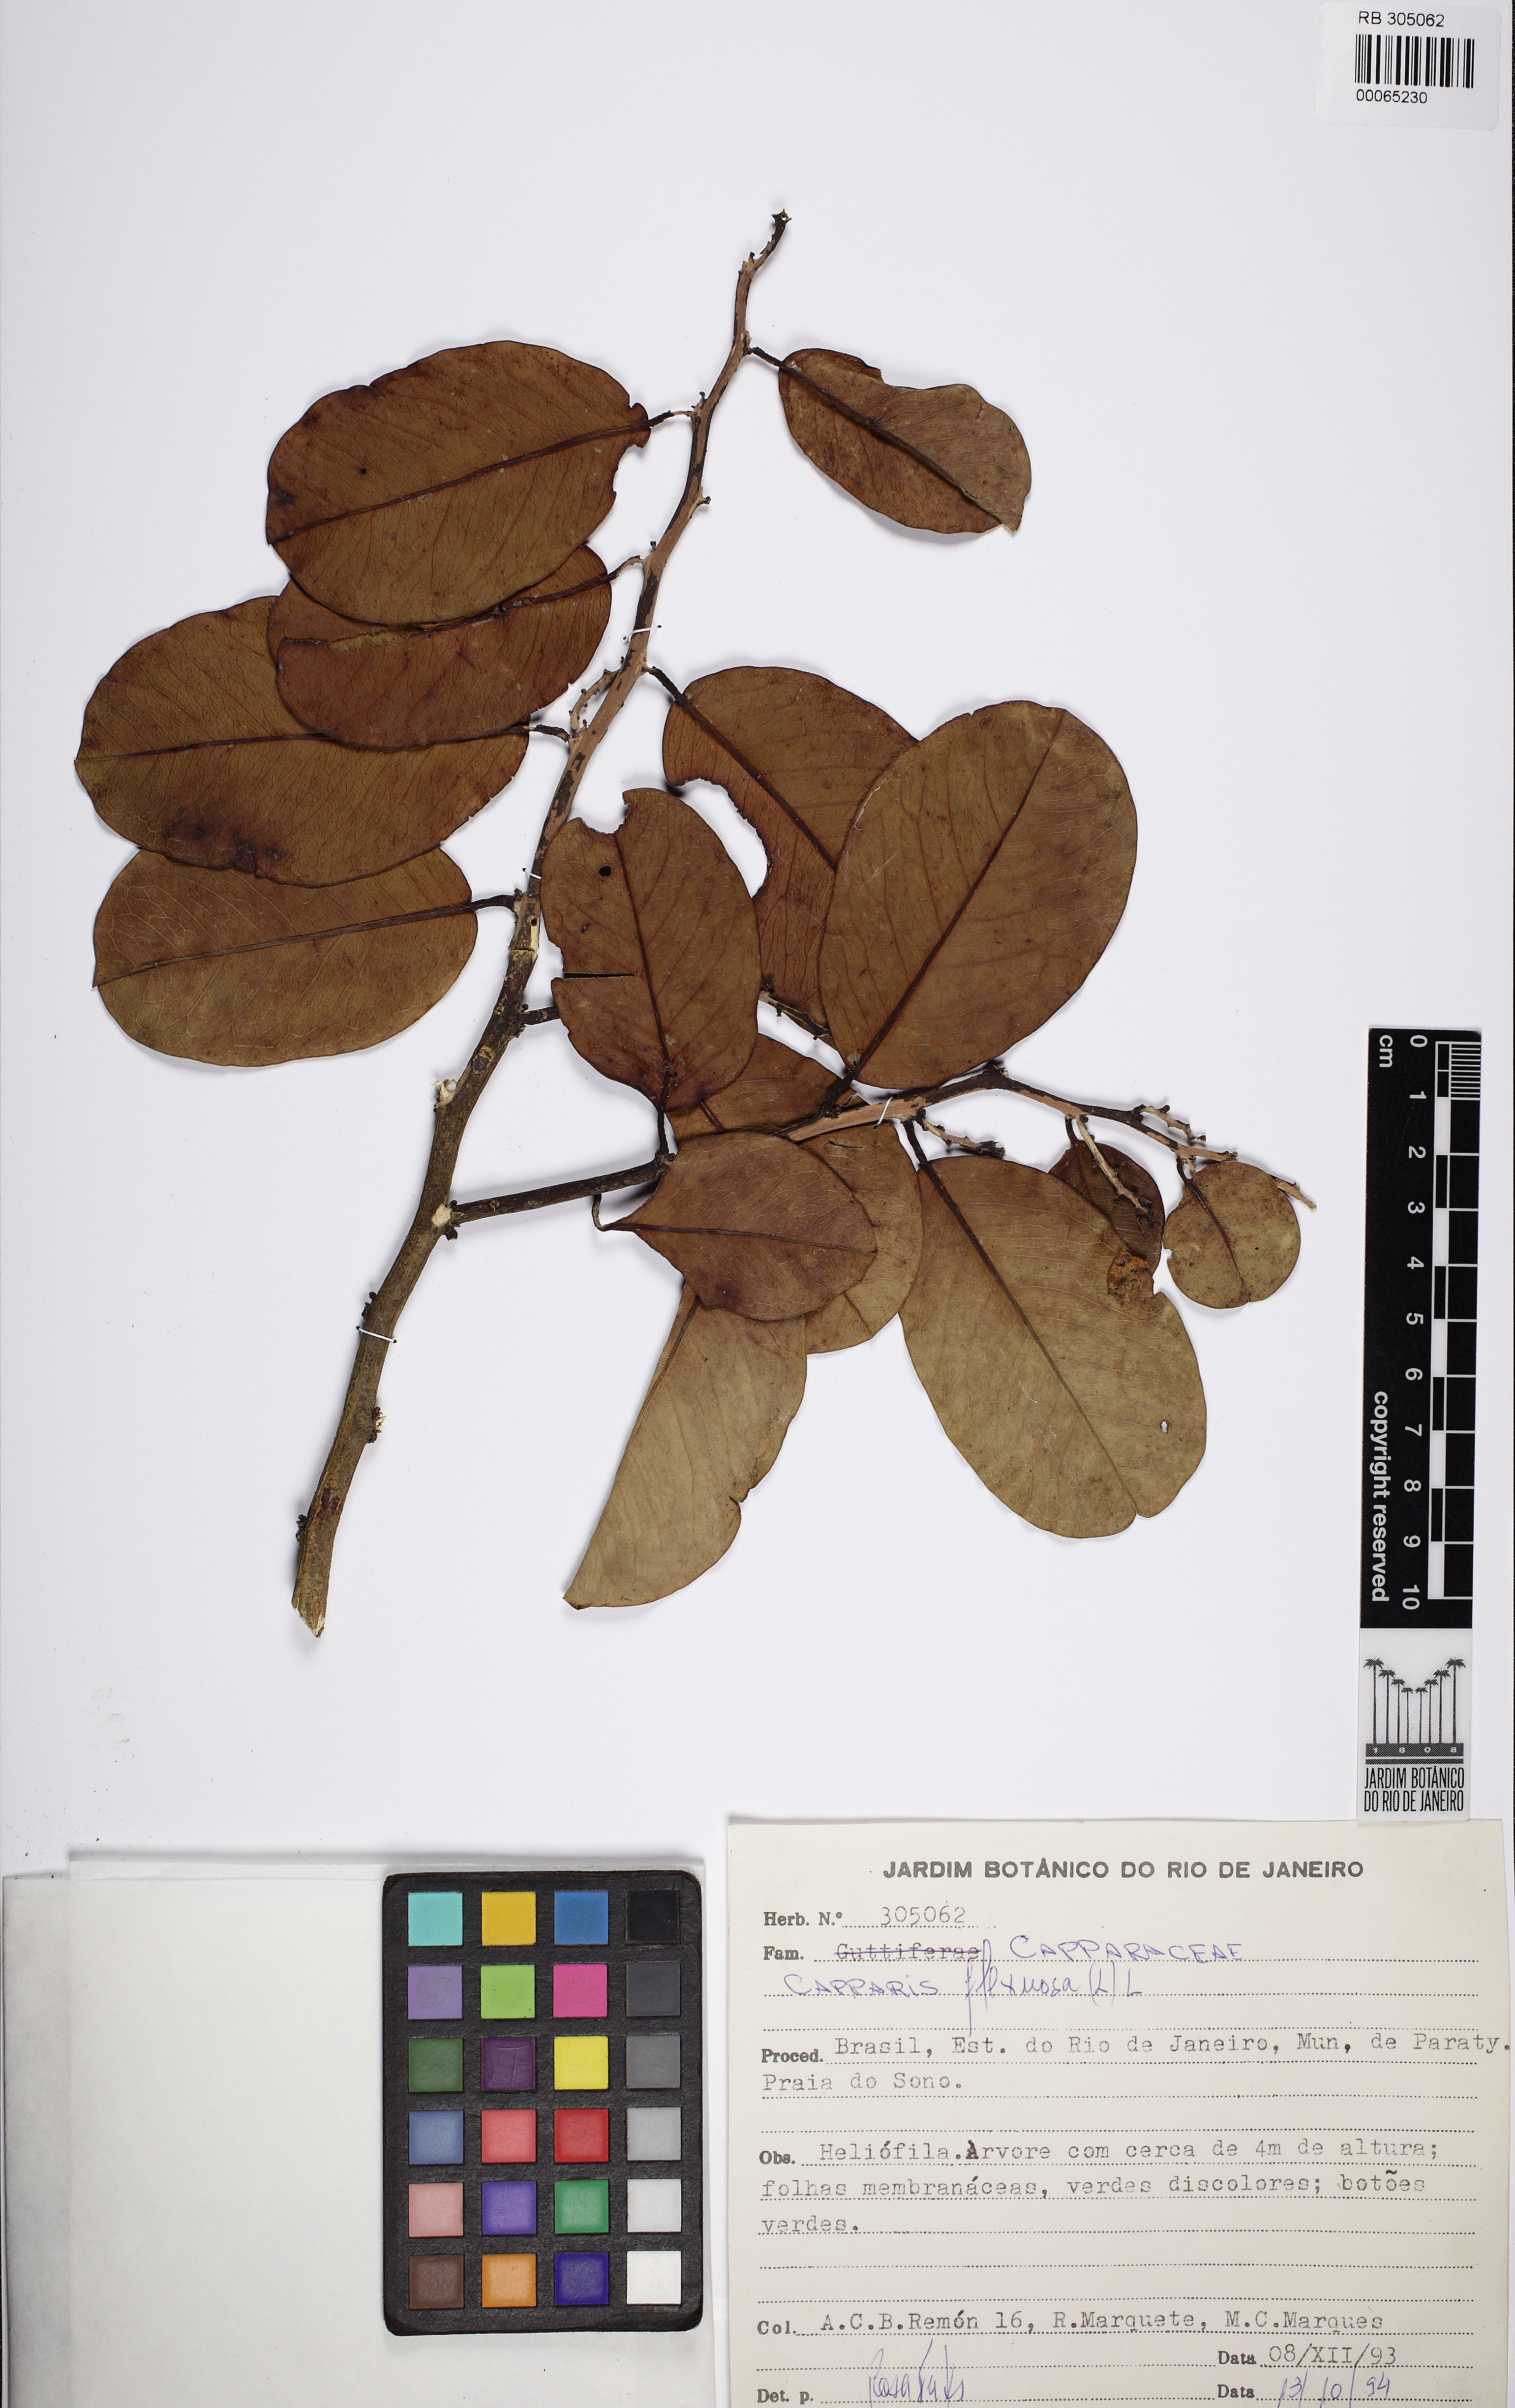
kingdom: Plantae
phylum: Tracheophyta
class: Magnoliopsida
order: Brassicales
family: Capparaceae
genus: Cynophalla
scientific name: Cynophalla flexuosa
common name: Capertree
